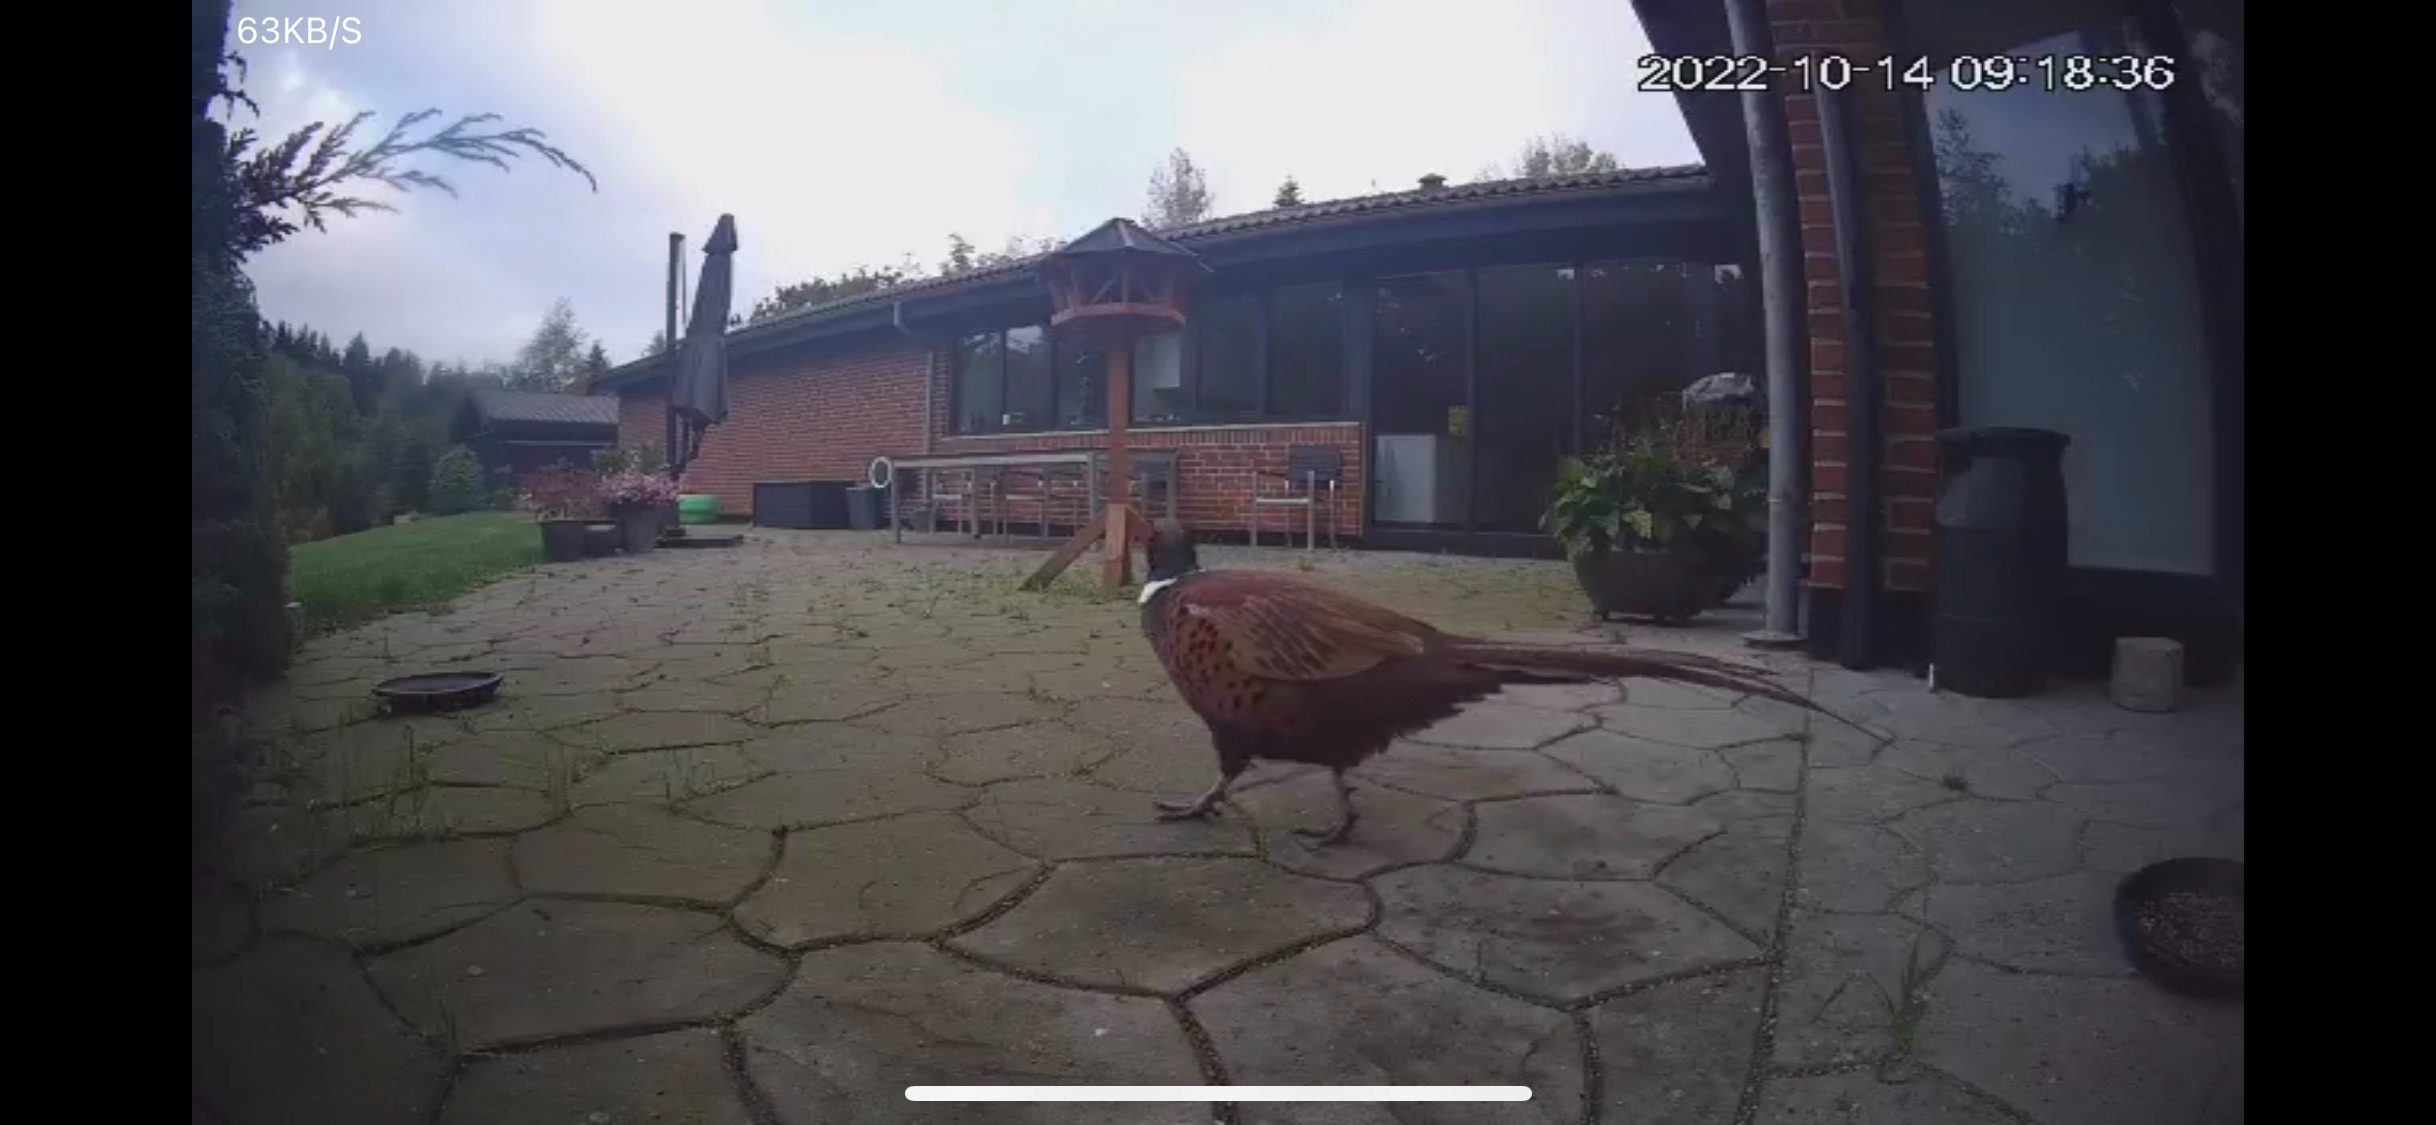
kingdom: Animalia
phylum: Chordata
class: Aves
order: Galliformes
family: Phasianidae
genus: Phasianus
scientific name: Phasianus colchicus
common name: Fasan
